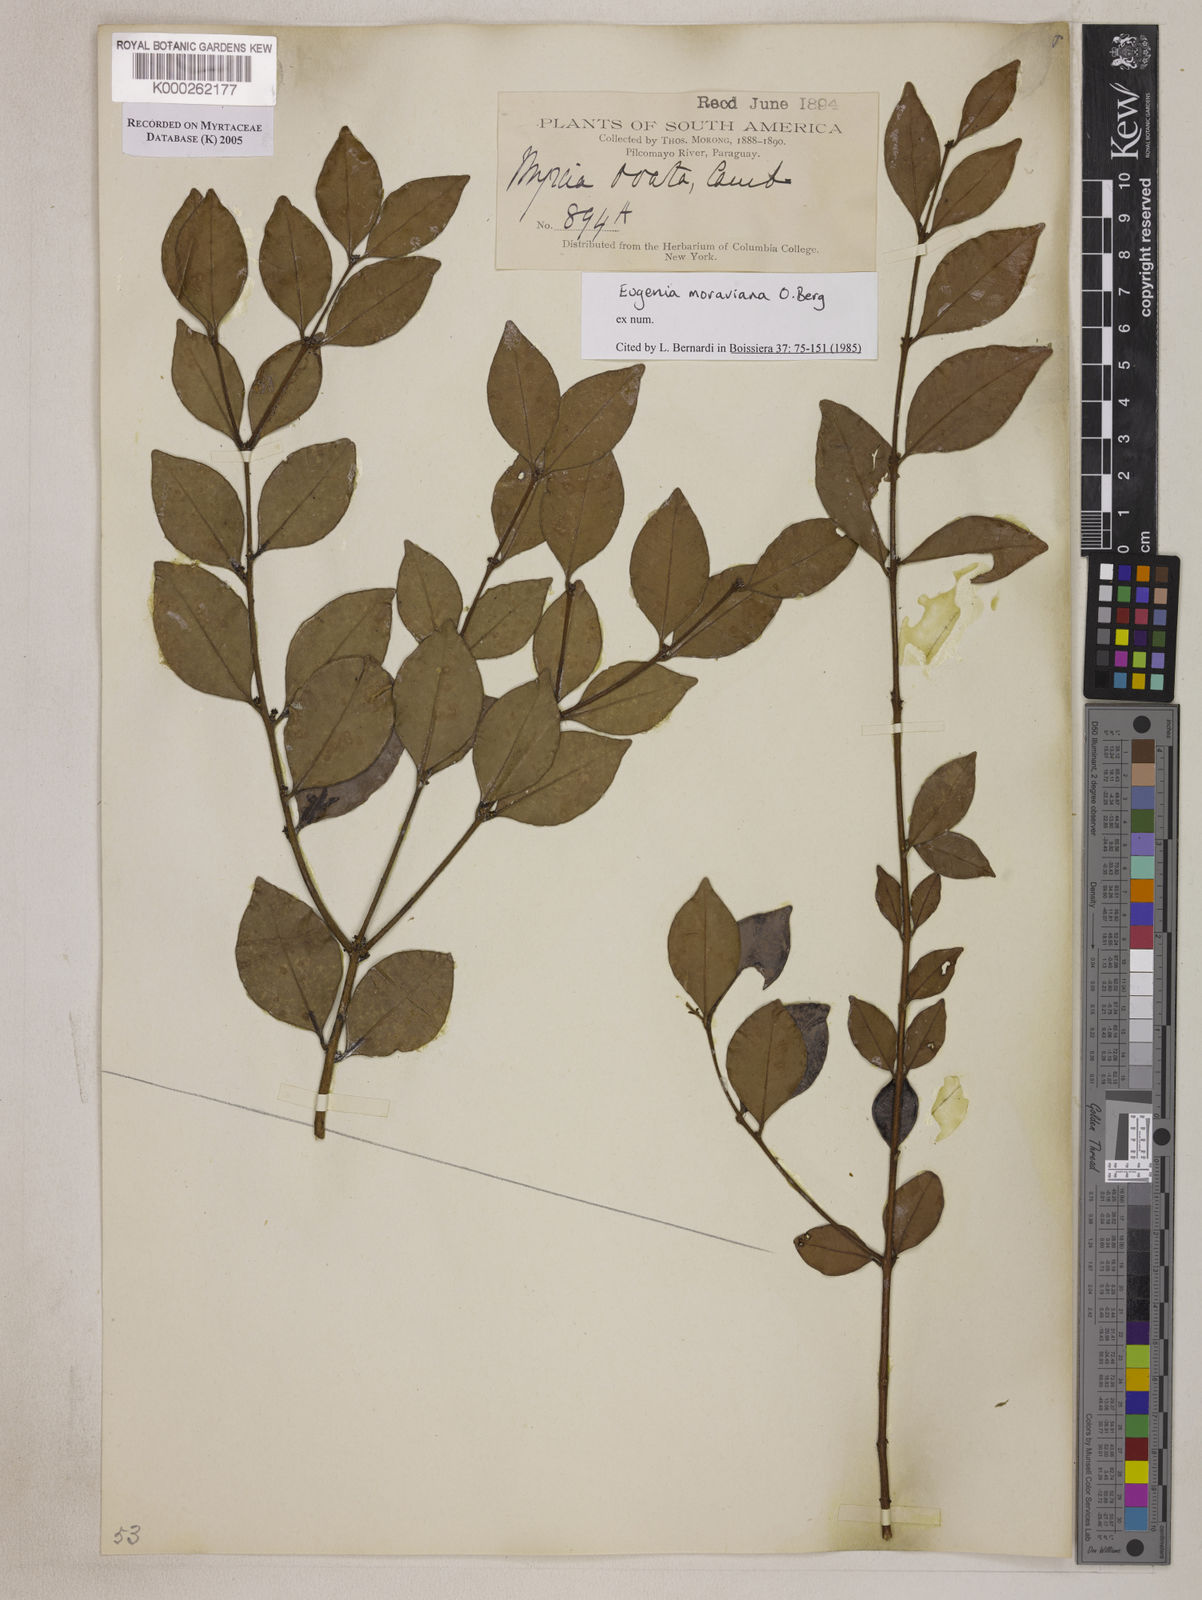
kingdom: Plantae
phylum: Tracheophyta
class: Magnoliopsida
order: Myrtales
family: Myrtaceae
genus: Eugenia
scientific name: Eugenia moraviana
